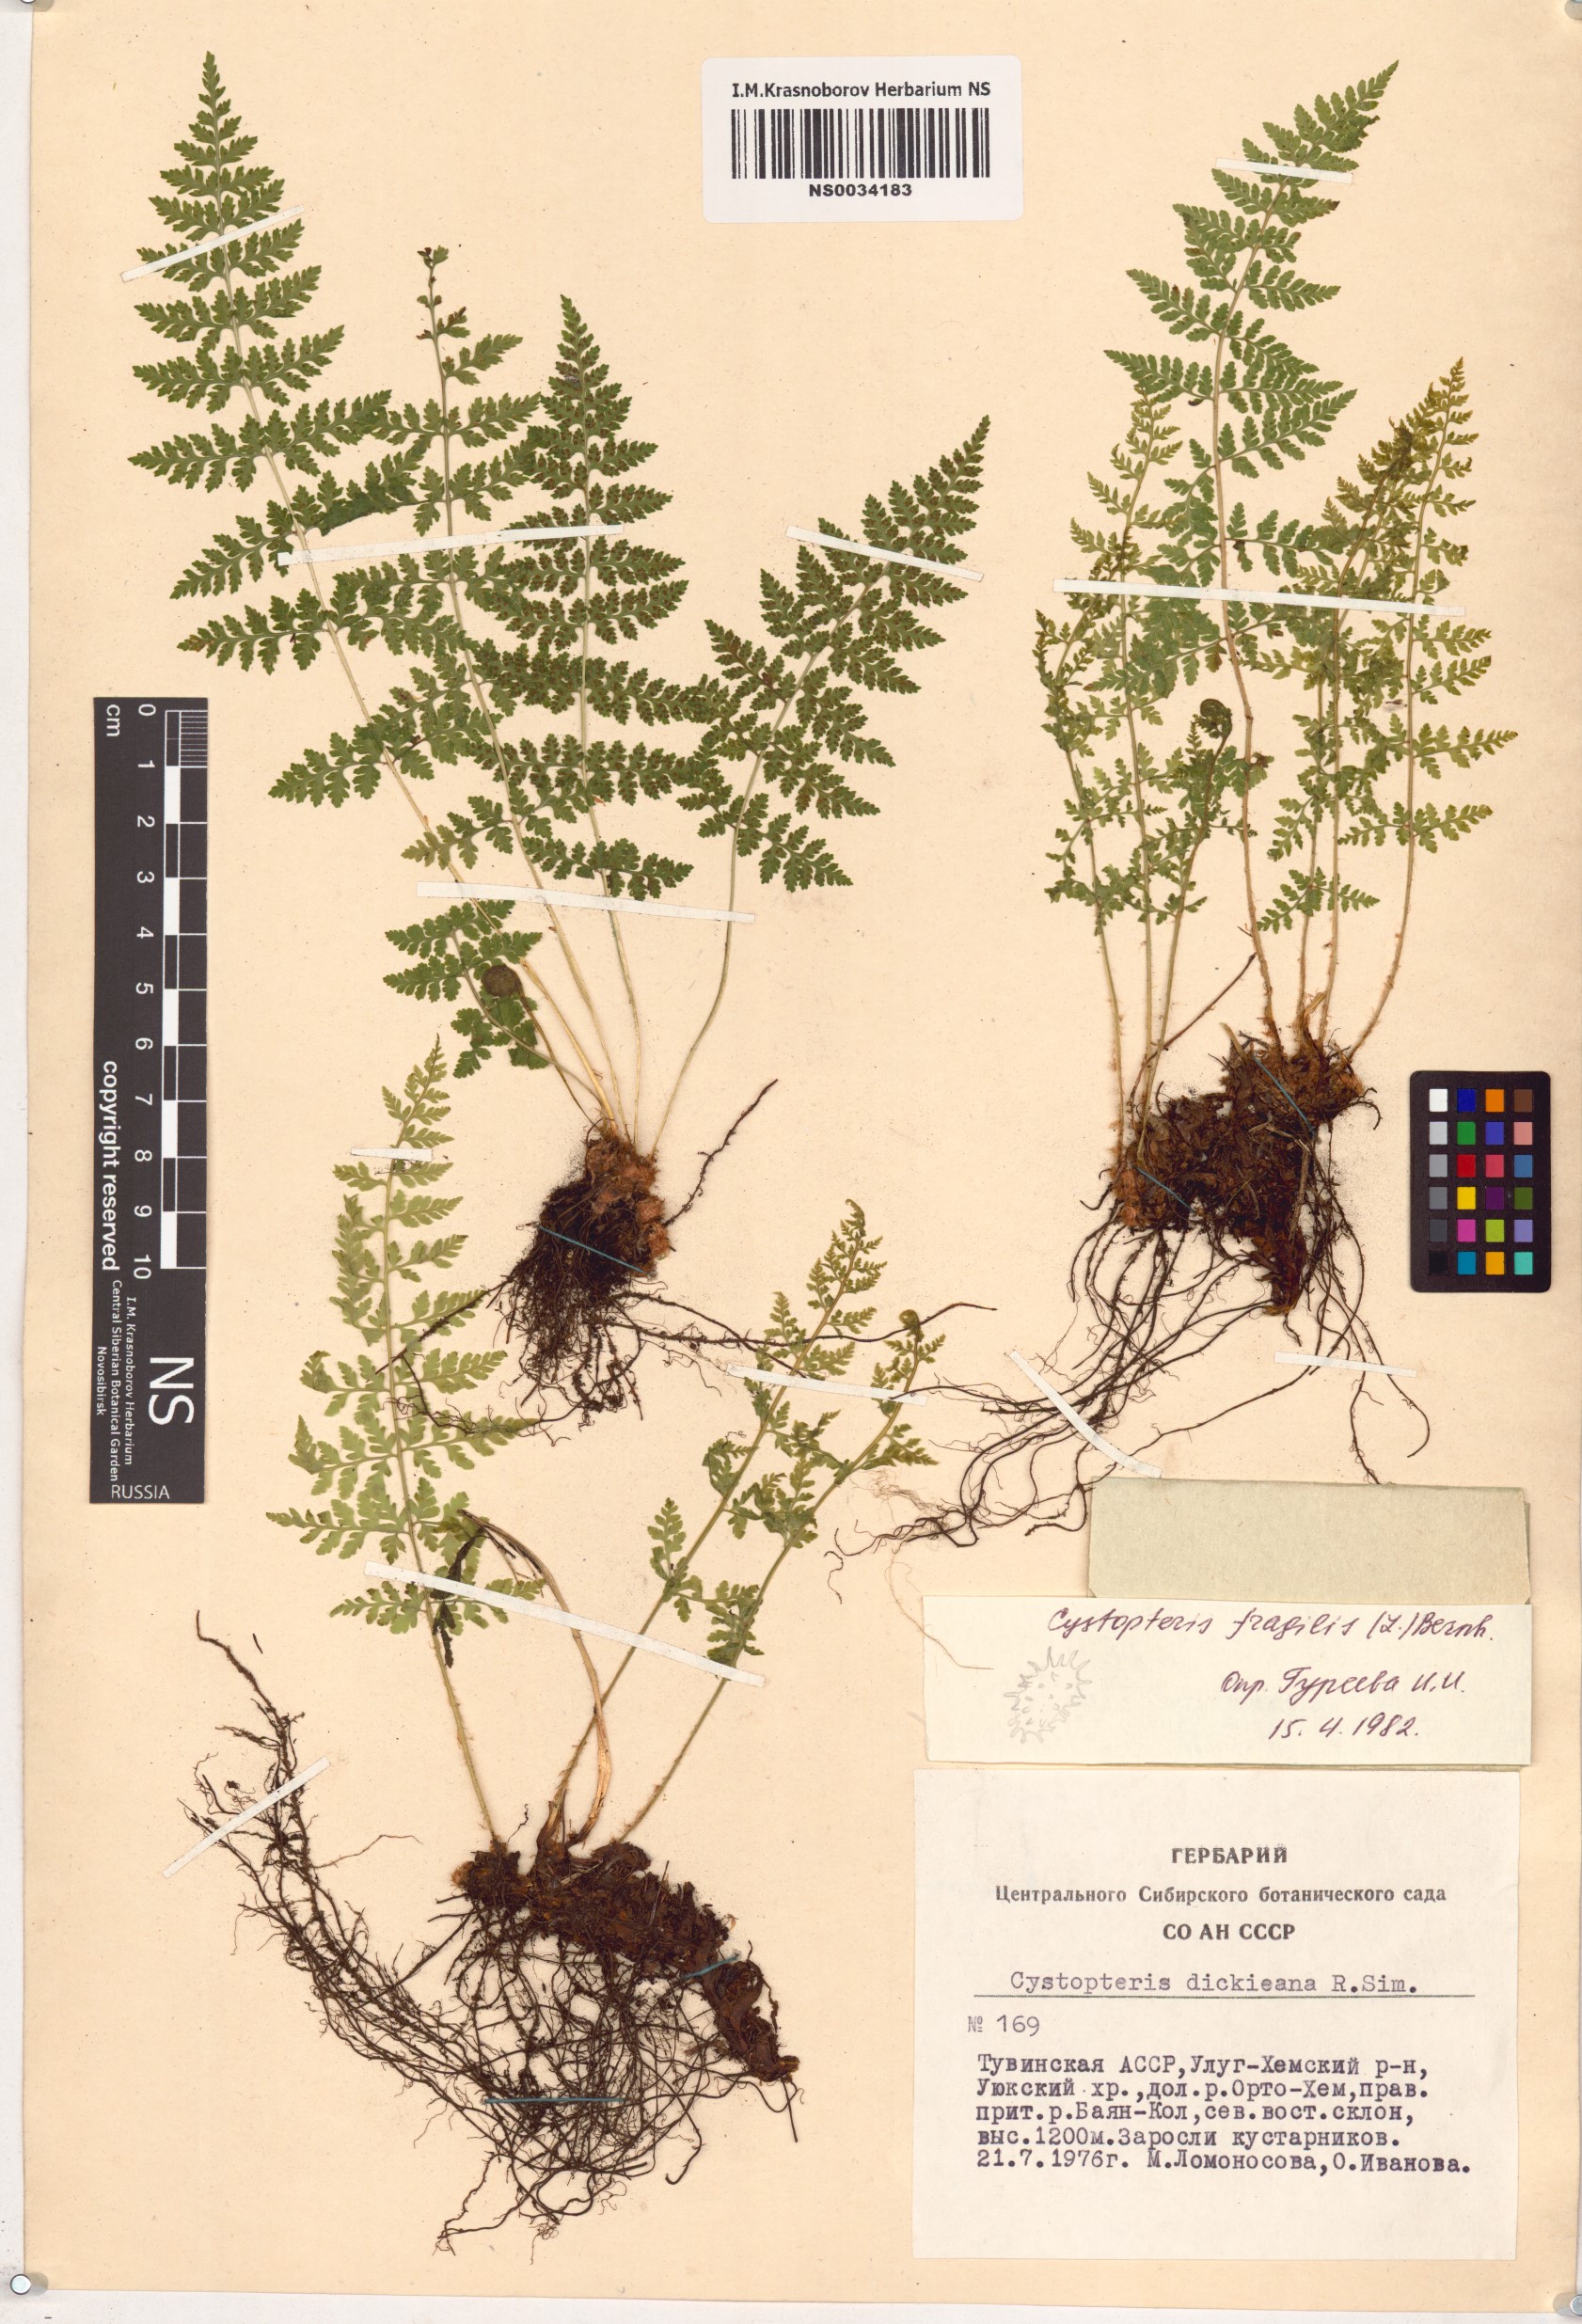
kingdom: Plantae
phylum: Tracheophyta
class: Polypodiopsida
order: Polypodiales
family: Cystopteridaceae
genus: Cystopteris
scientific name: Cystopteris fragilis
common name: Brittle bladder fern
